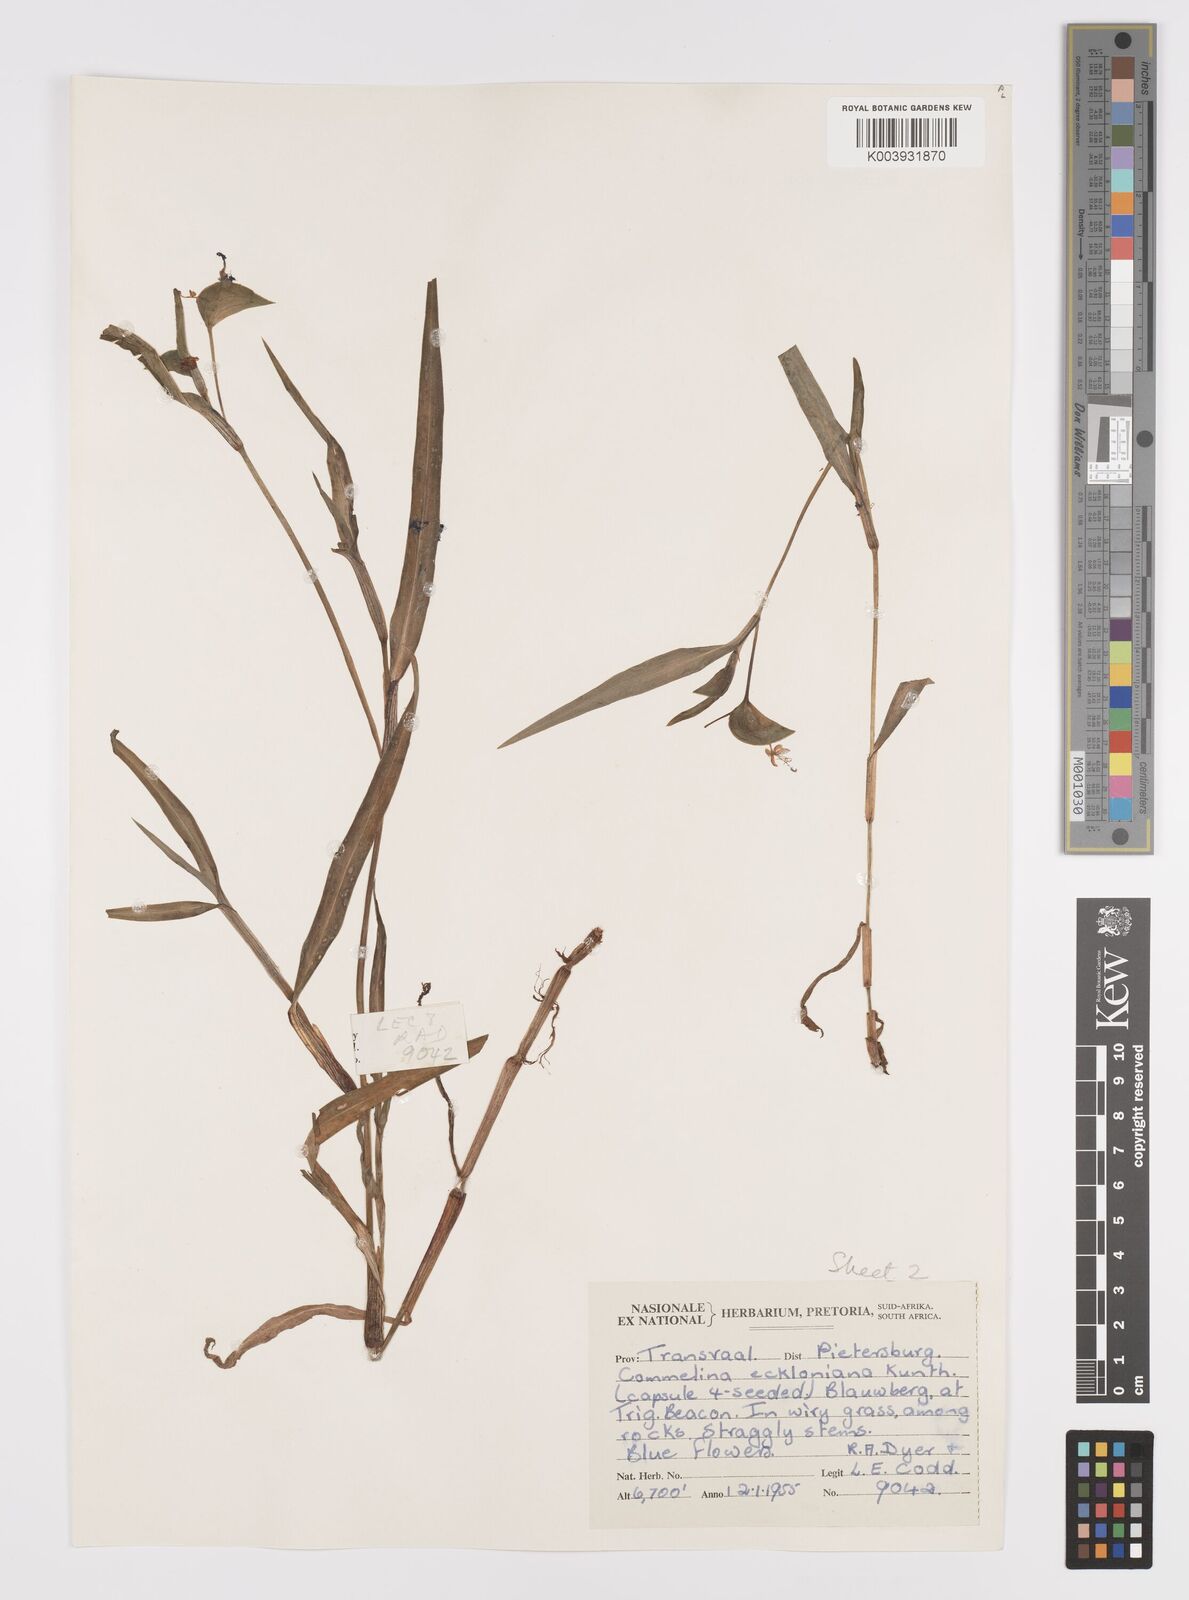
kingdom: Plantae
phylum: Tracheophyta
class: Liliopsida
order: Commelinales
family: Commelinaceae
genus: Commelina
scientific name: Commelina eckloniana
